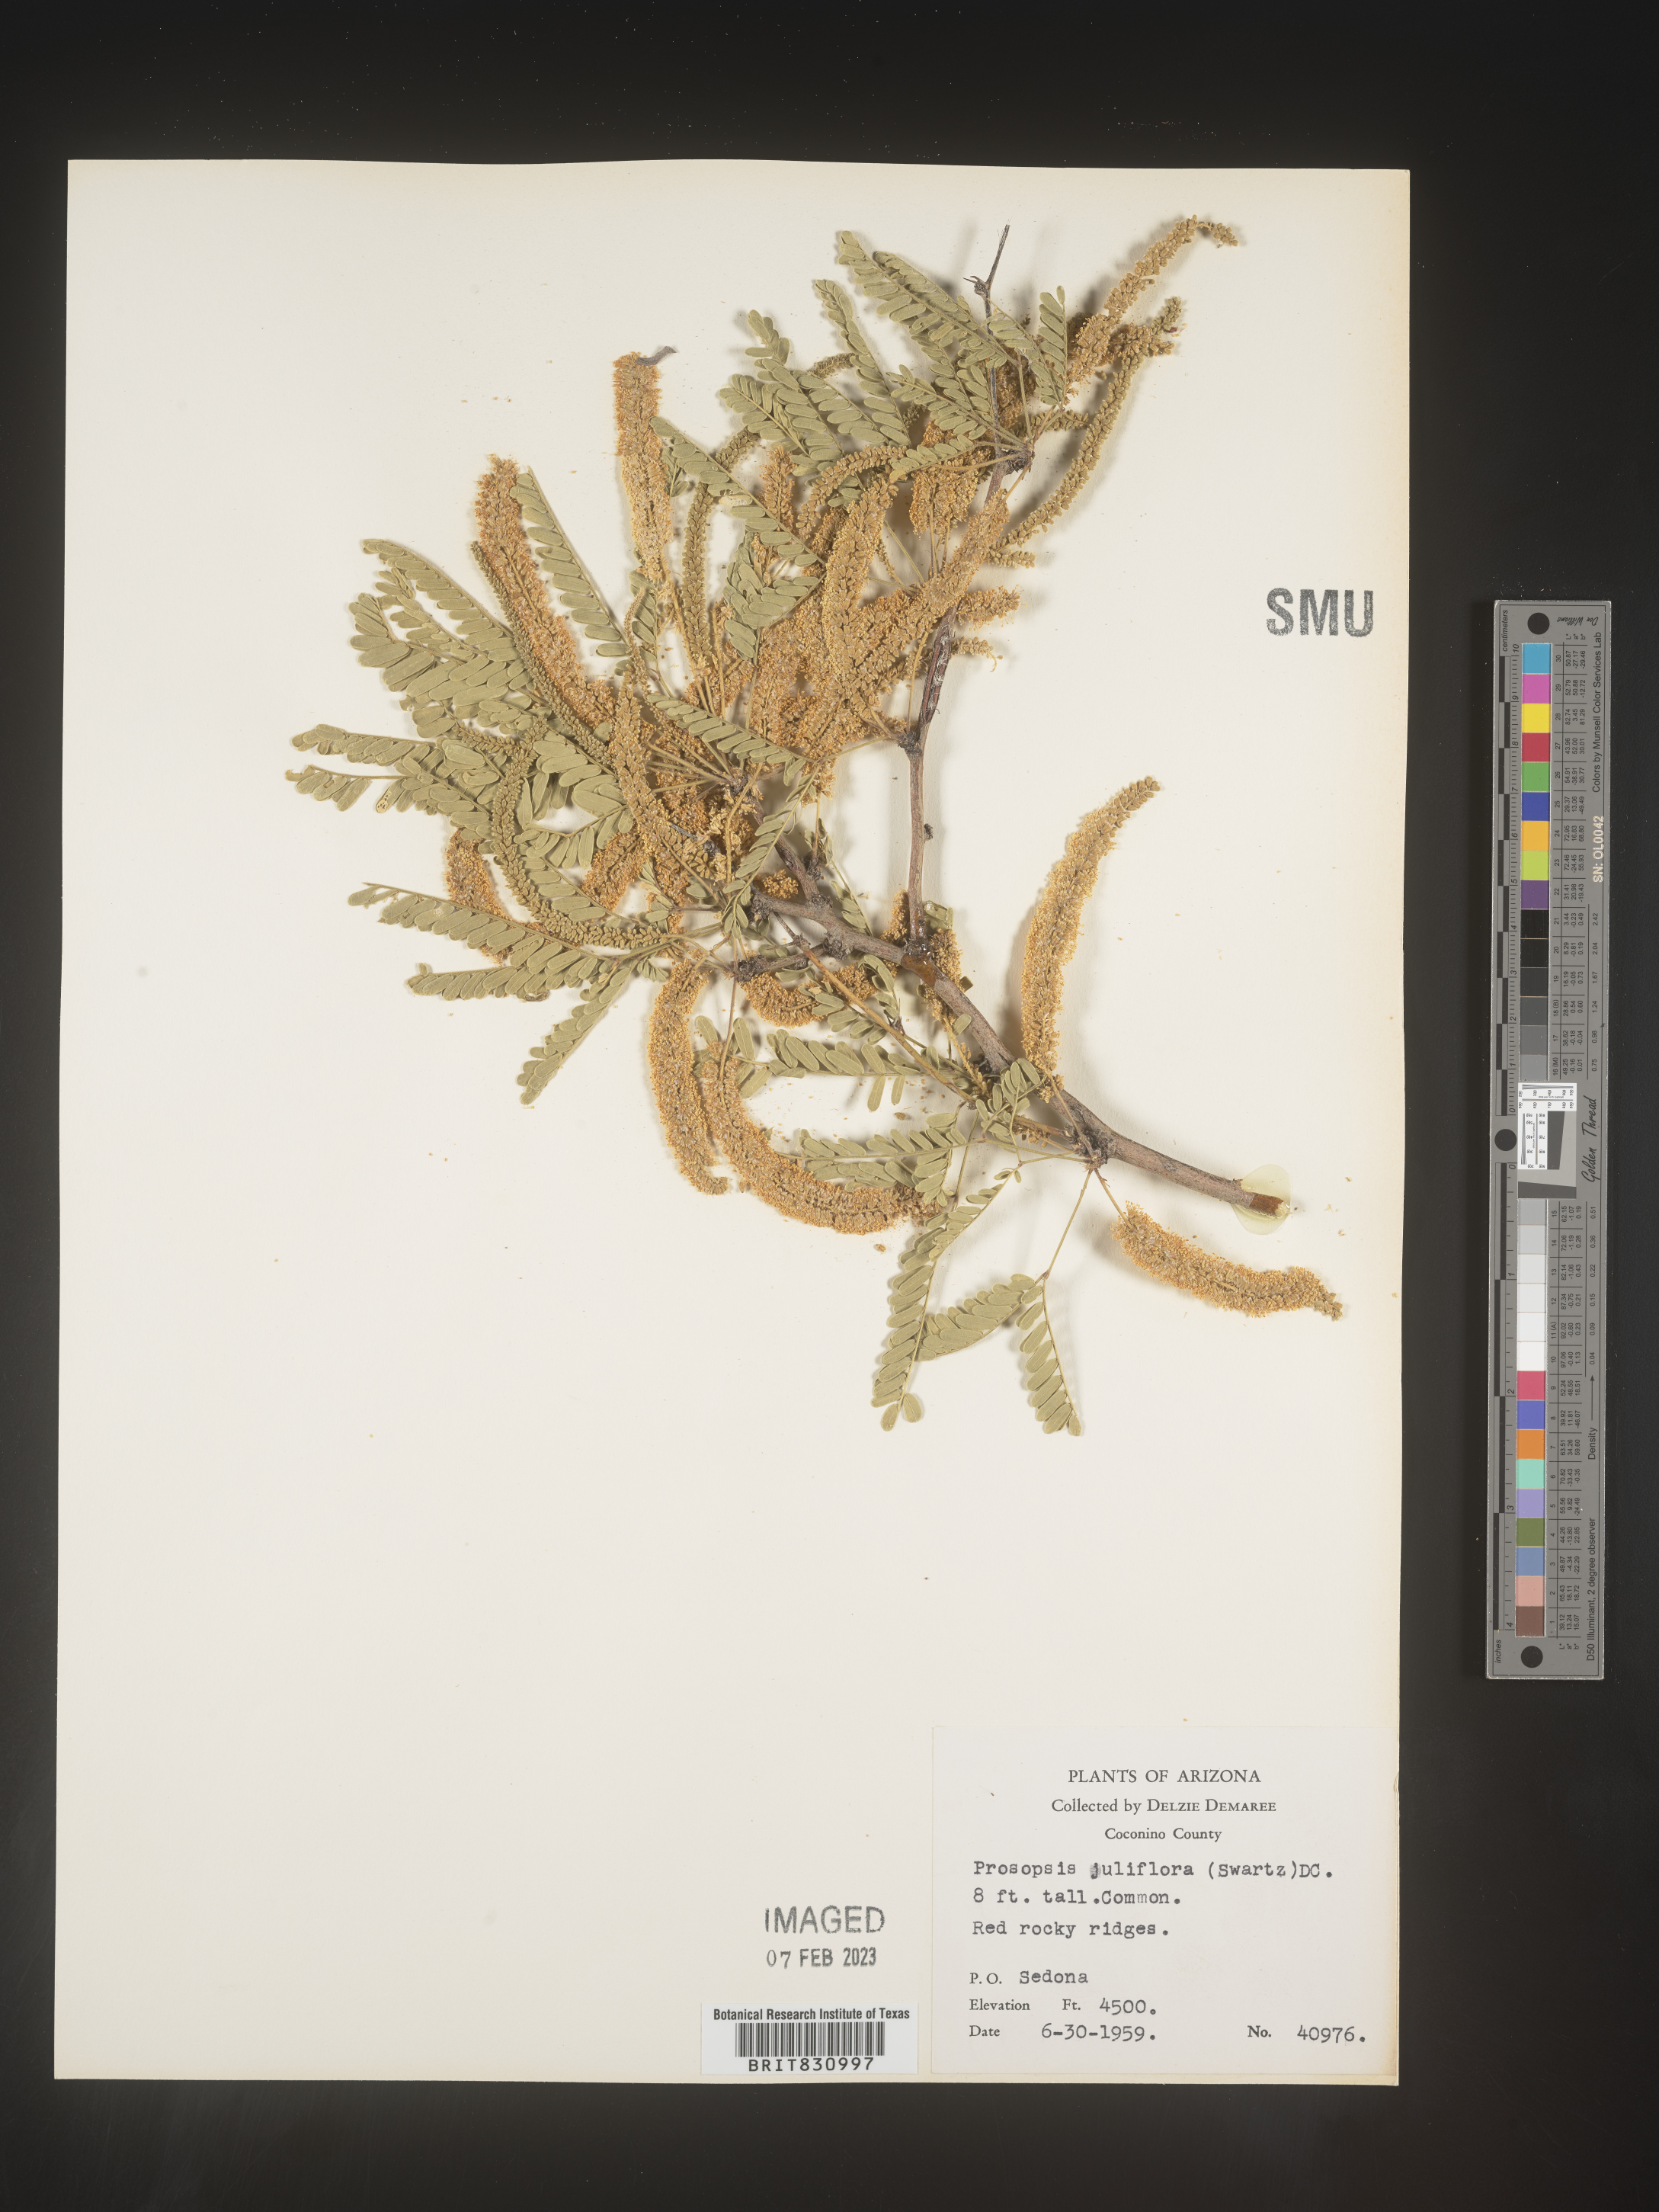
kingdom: Plantae
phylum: Tracheophyta
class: Magnoliopsida
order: Fabales
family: Fabaceae
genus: Prosopis
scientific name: Prosopis juliflora
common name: Mesquite
